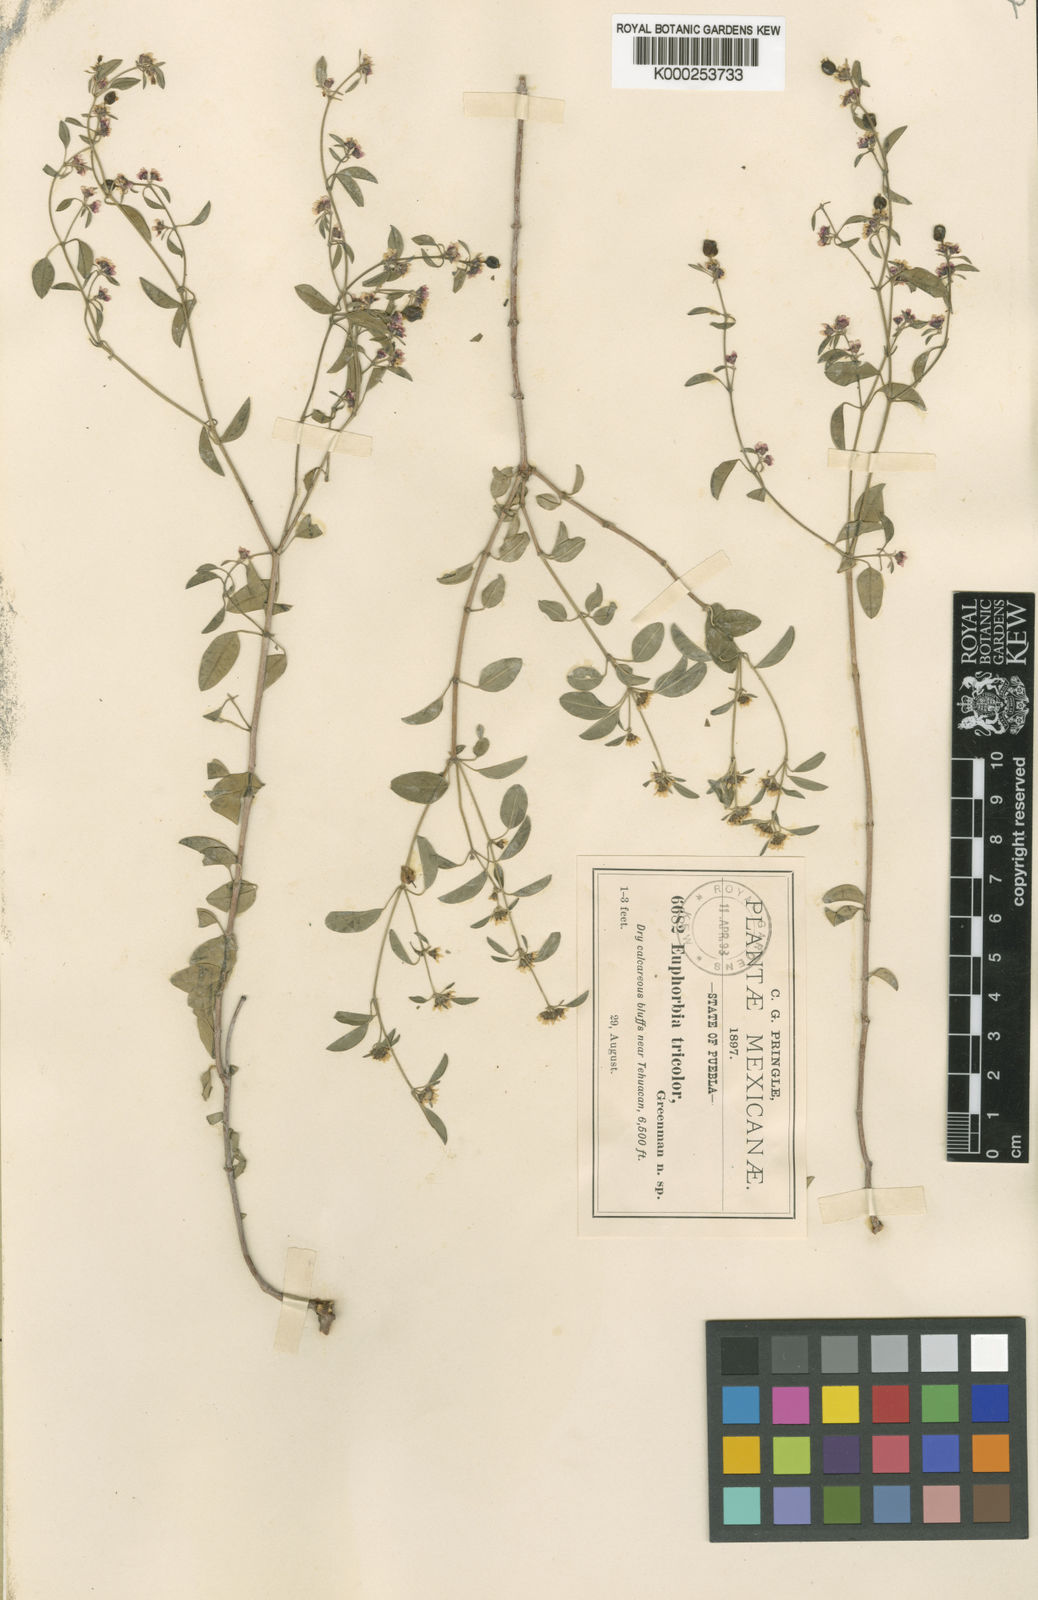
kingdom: Plantae
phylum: Tracheophyta
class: Magnoliopsida
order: Malpighiales
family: Euphorbiaceae
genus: Euphorbia
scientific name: Euphorbia tricolor
